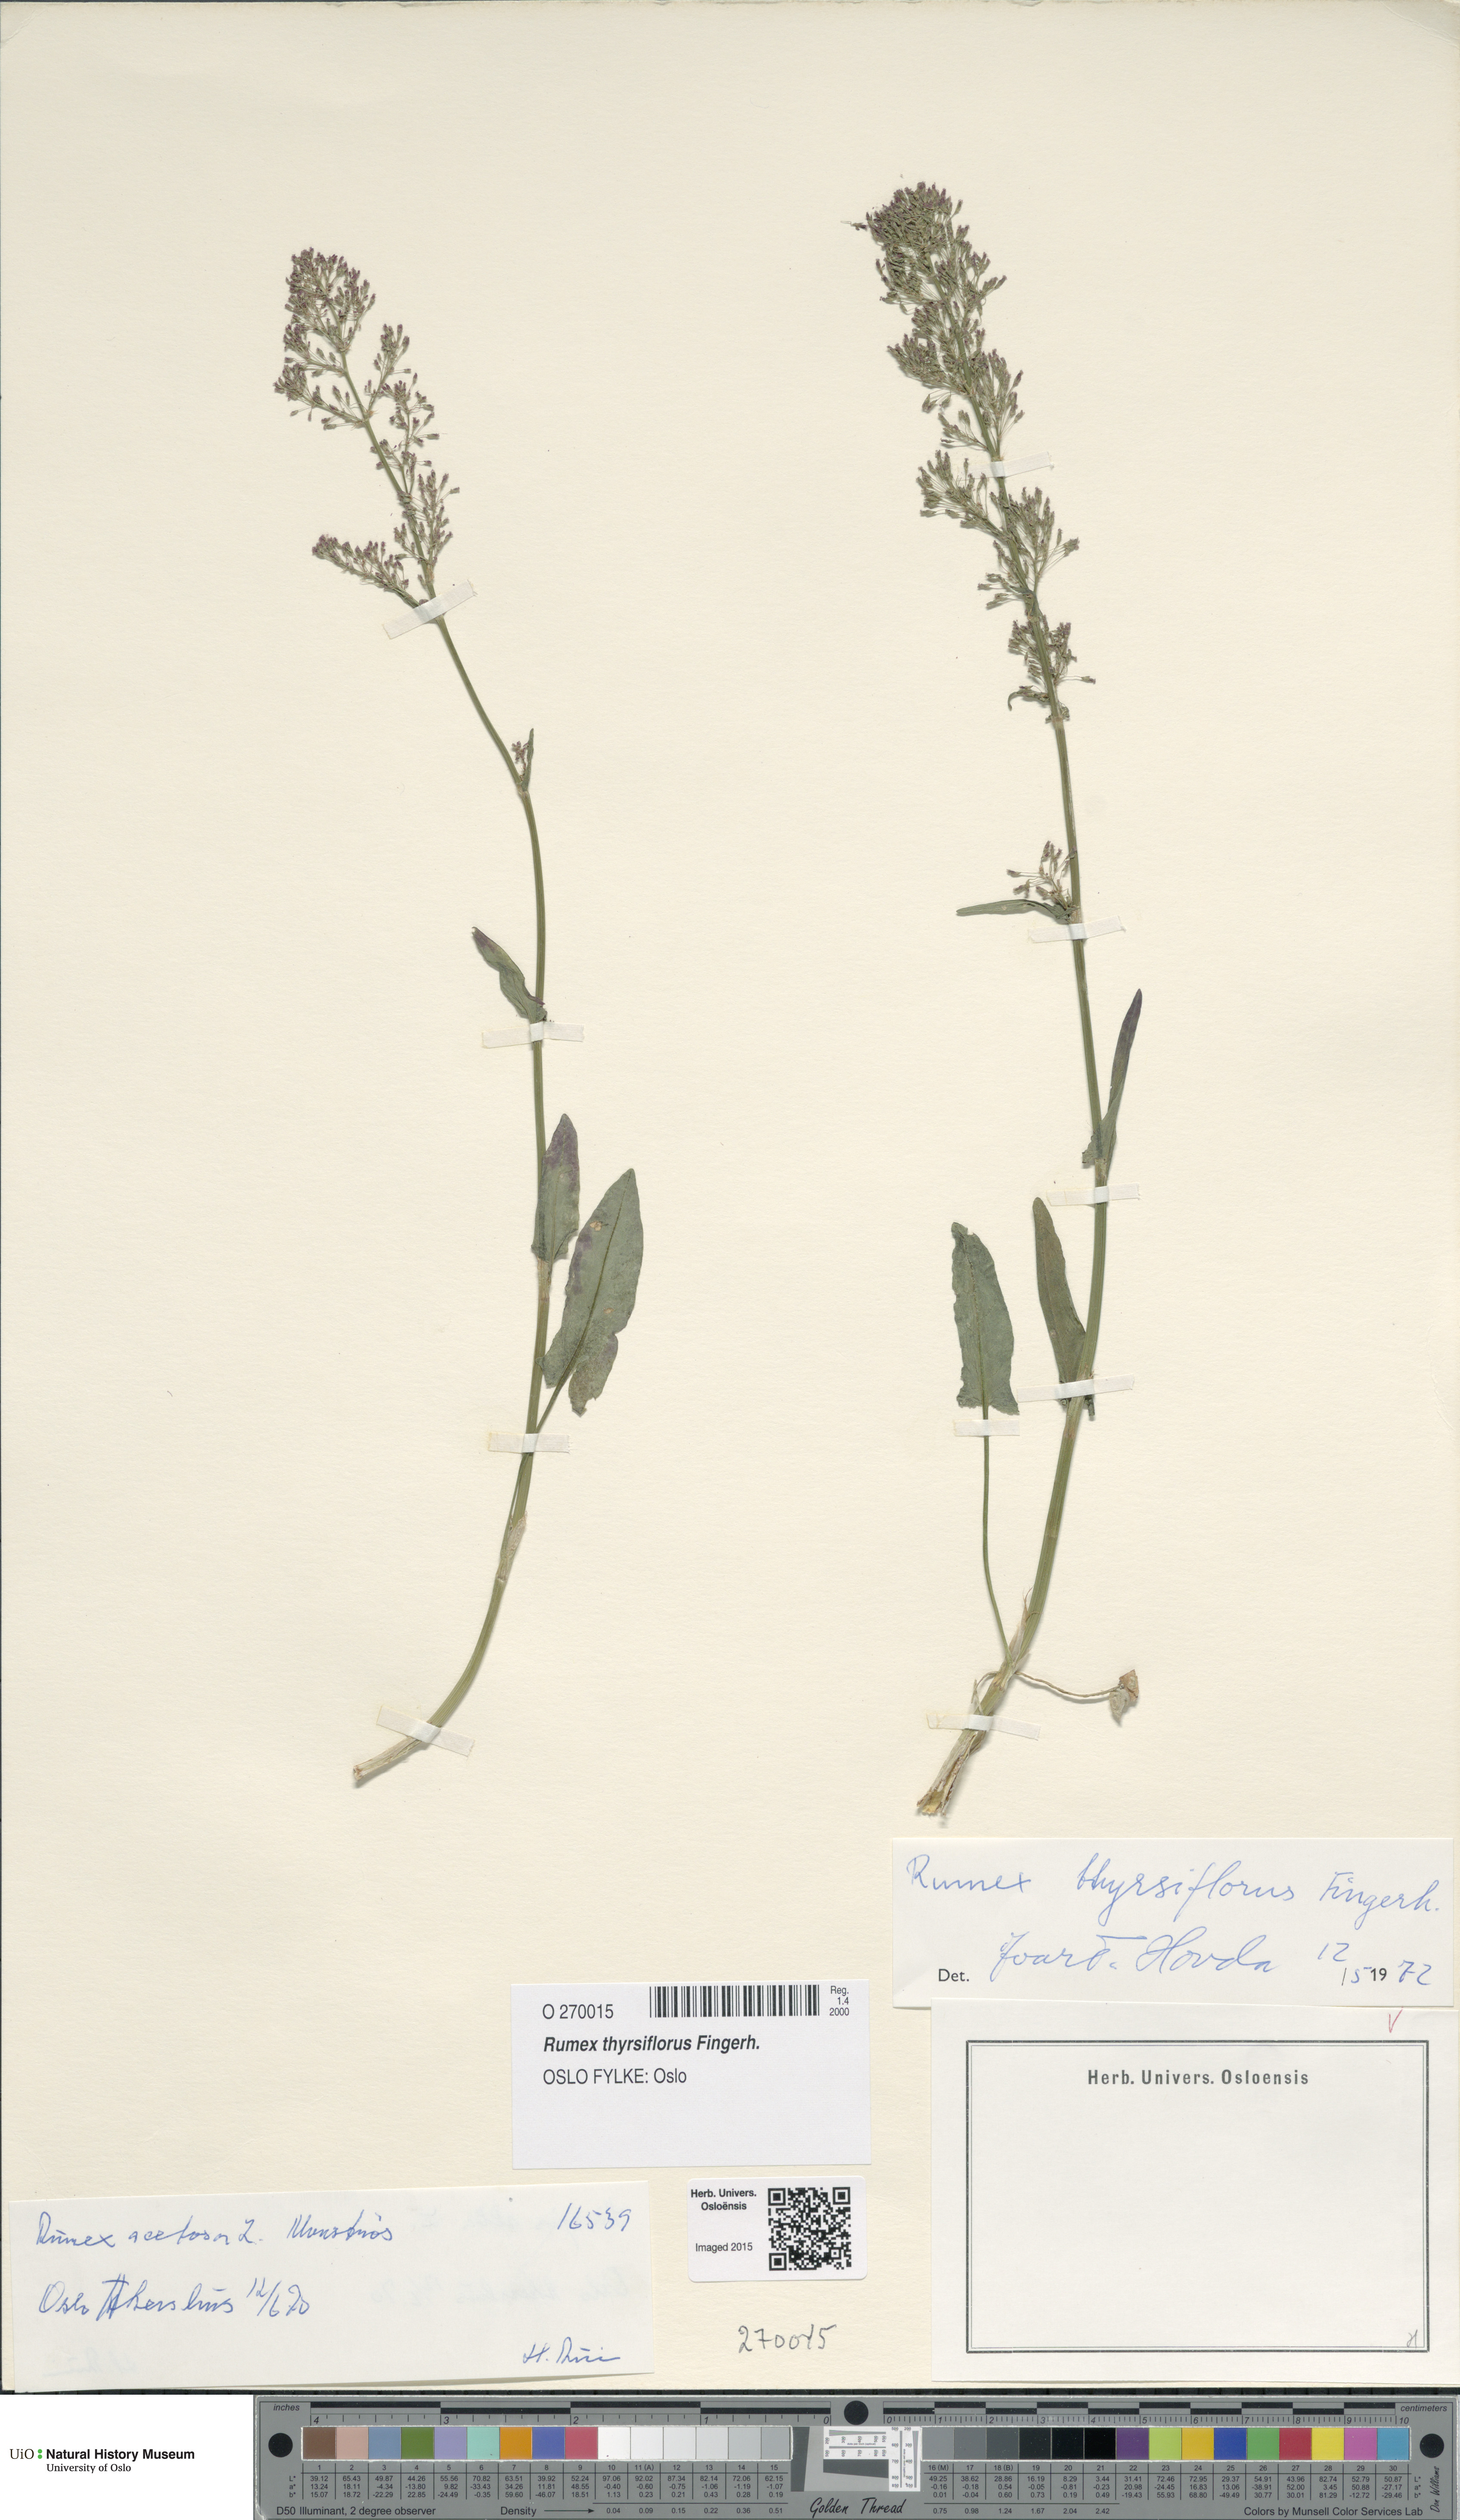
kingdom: Plantae
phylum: Tracheophyta
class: Magnoliopsida
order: Caryophyllales
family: Polygonaceae
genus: Rumex
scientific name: Rumex thyrsiflorus
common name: Garden sorrel
